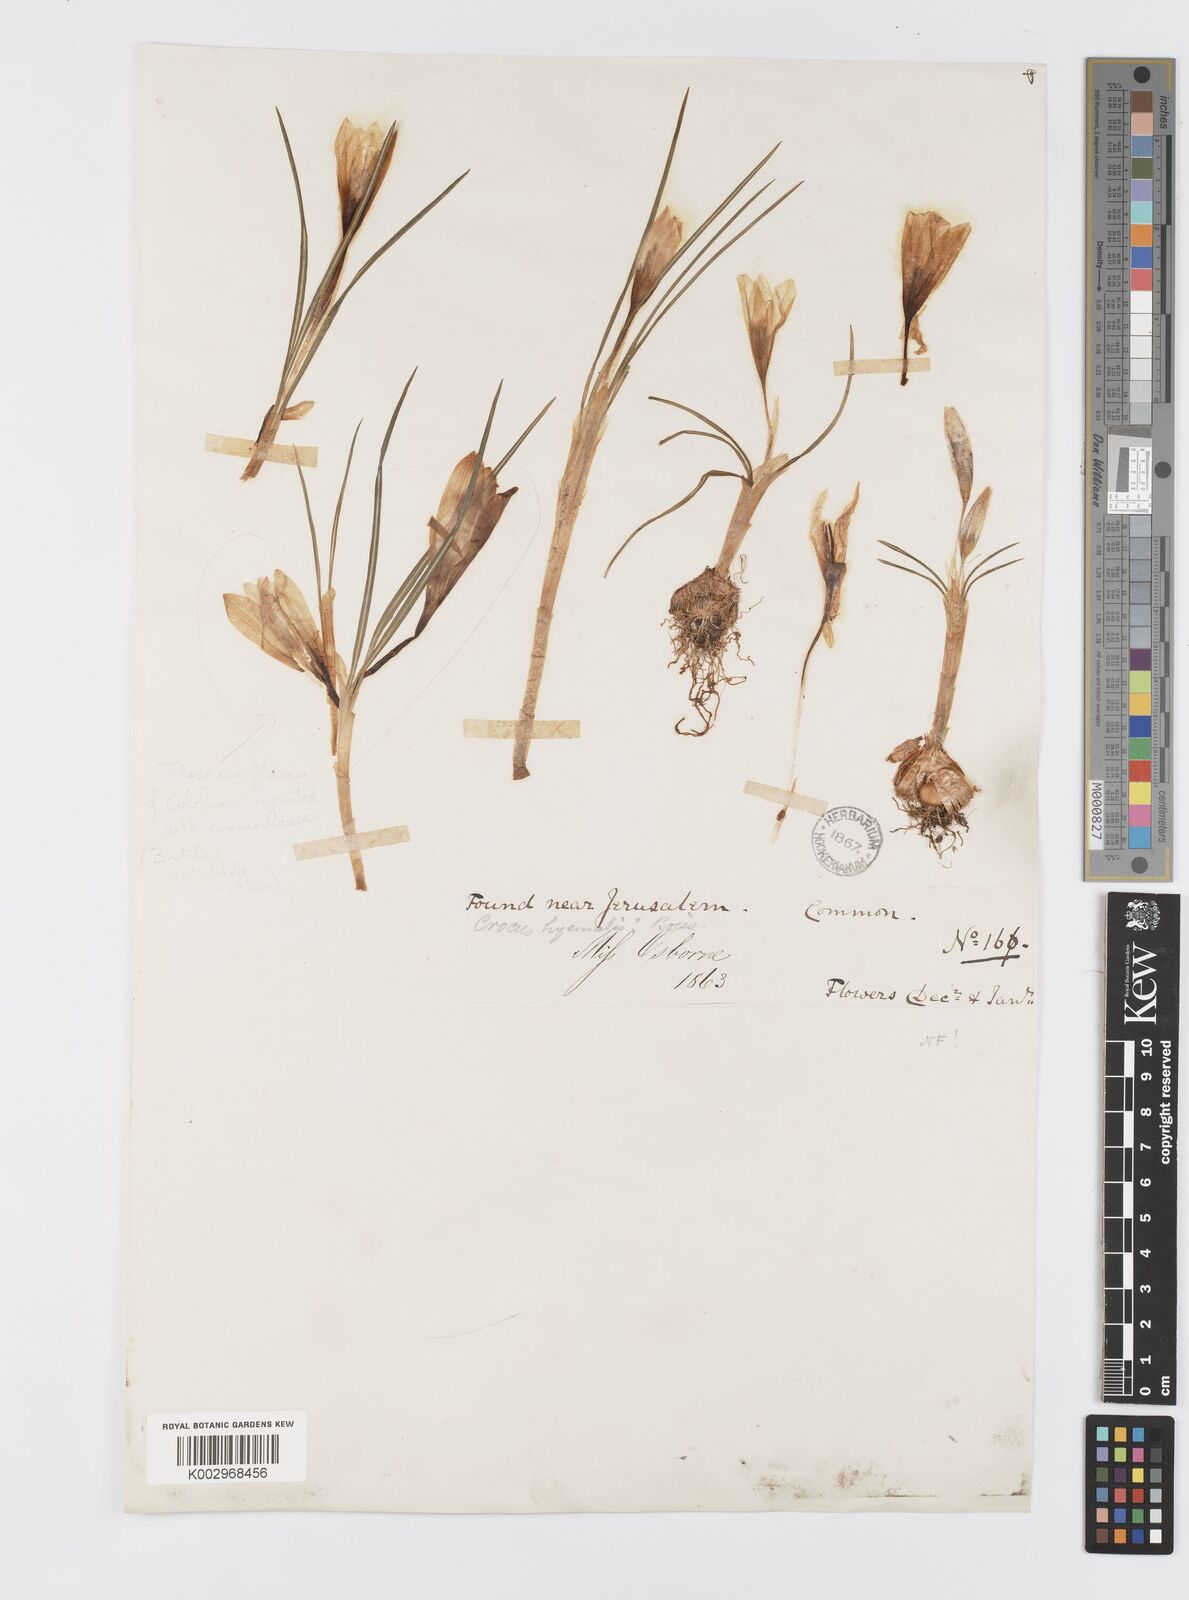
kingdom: Plantae
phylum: Tracheophyta
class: Liliopsida
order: Asparagales
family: Iridaceae
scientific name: Iridaceae
